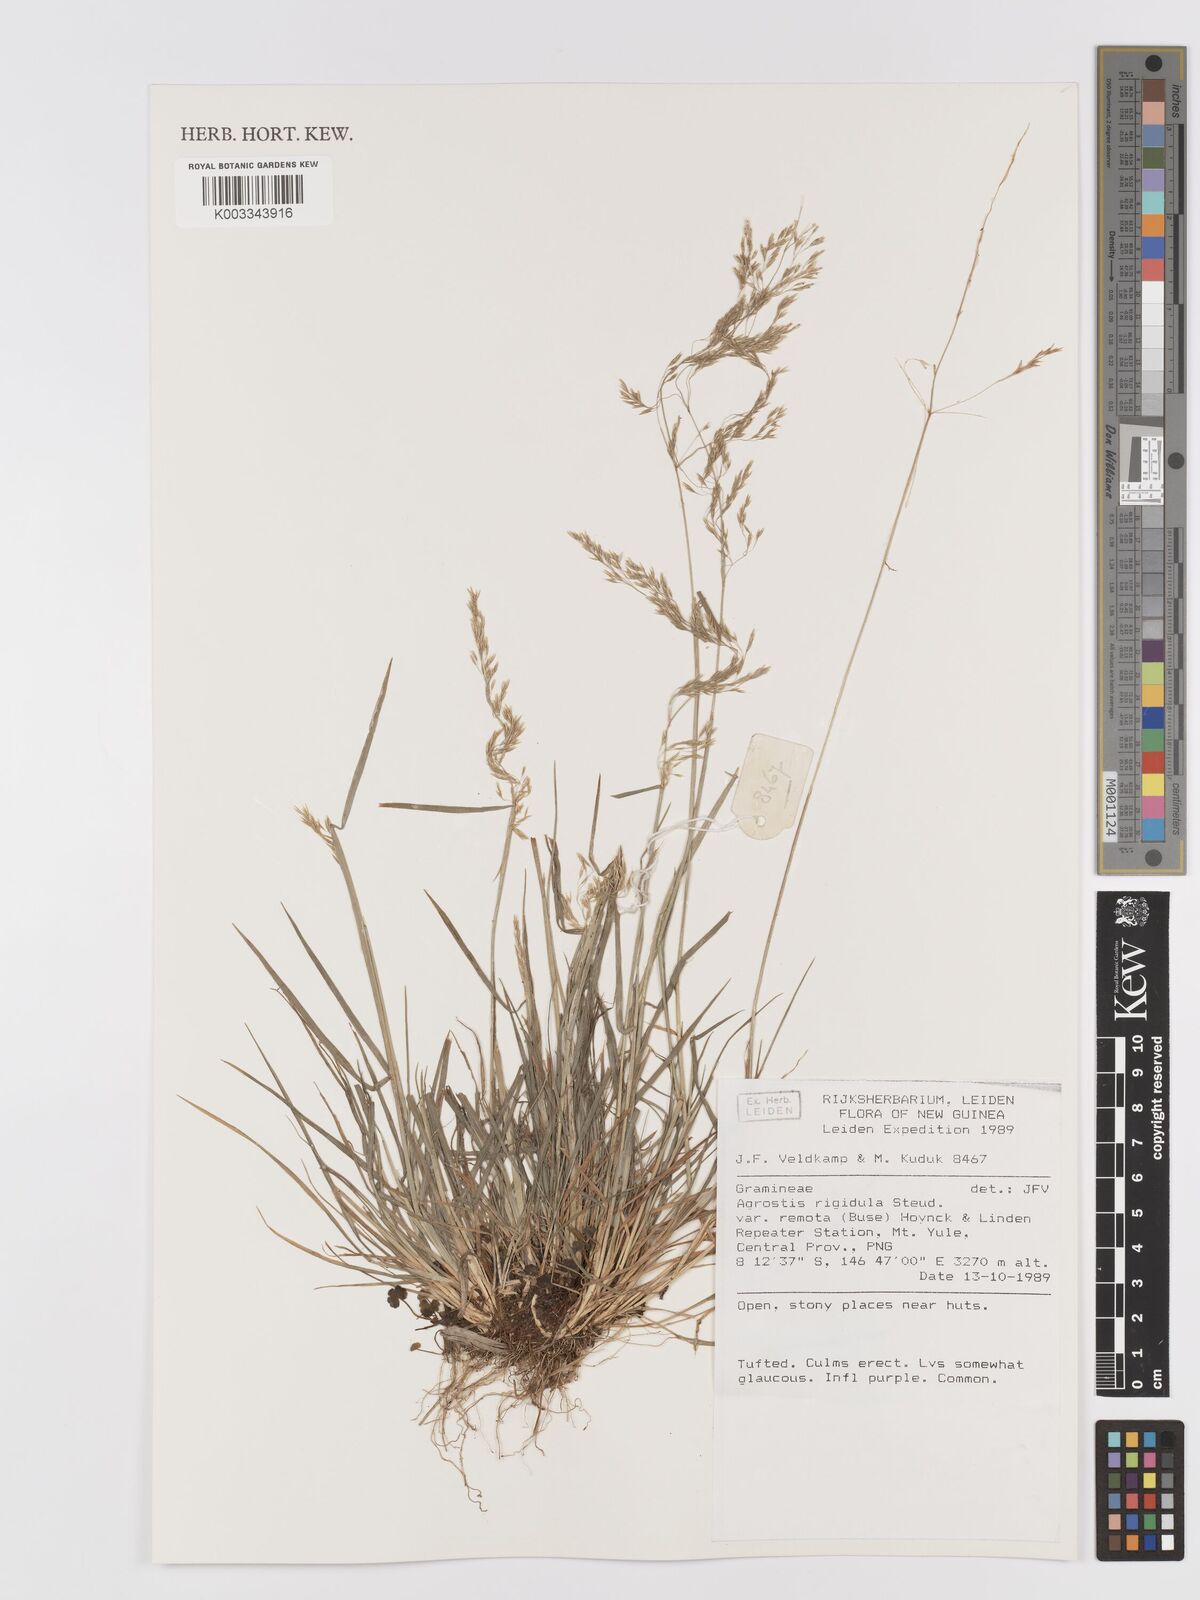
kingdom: Plantae
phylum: Tracheophyta
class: Liliopsida
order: Poales
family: Poaceae
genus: Agrostis
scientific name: Agrostis infirma
